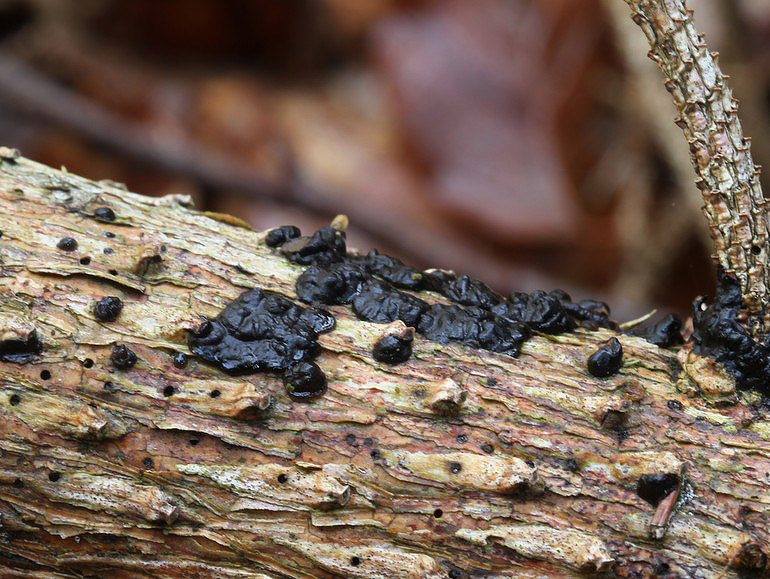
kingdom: Fungi
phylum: Basidiomycota
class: Agaricomycetes
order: Auriculariales
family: Auriculariaceae
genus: Exidia
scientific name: Exidia pithya
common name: gran-bævretop
